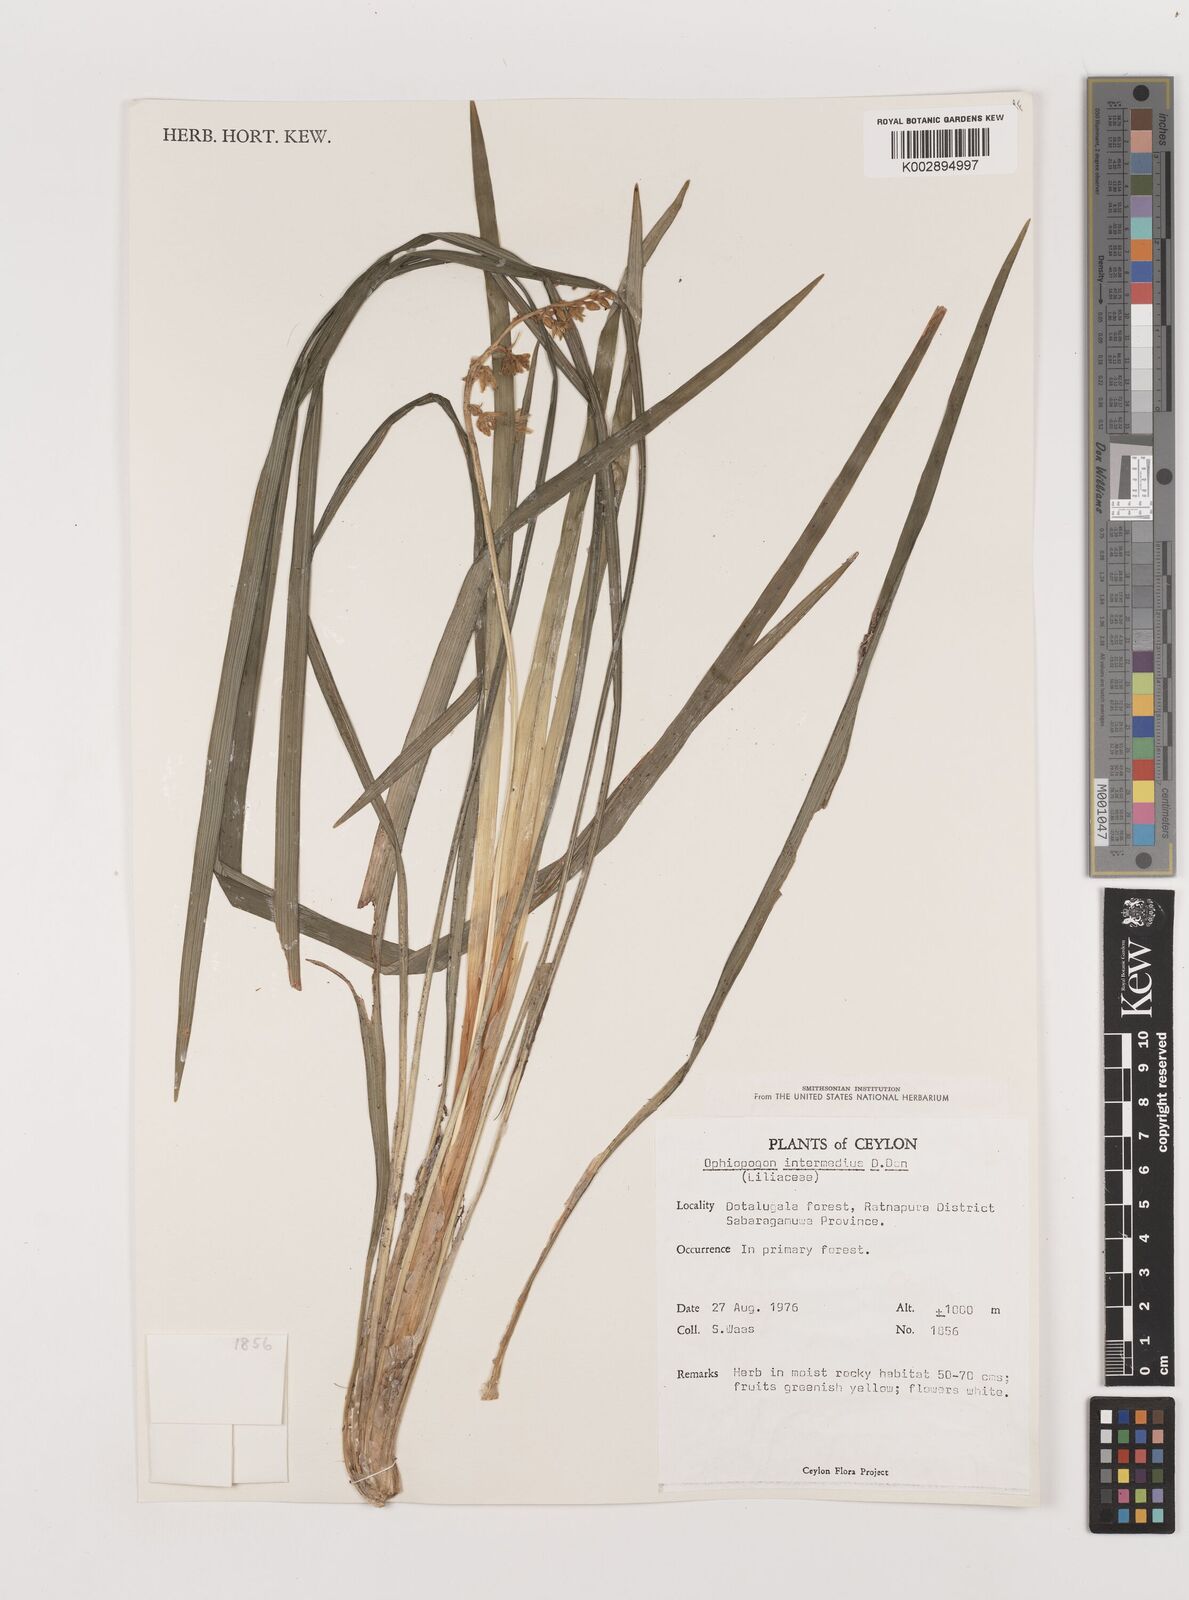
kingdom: Plantae
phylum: Tracheophyta
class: Liliopsida
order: Asparagales
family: Asparagaceae
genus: Ophiopogon
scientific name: Ophiopogon intermedius
